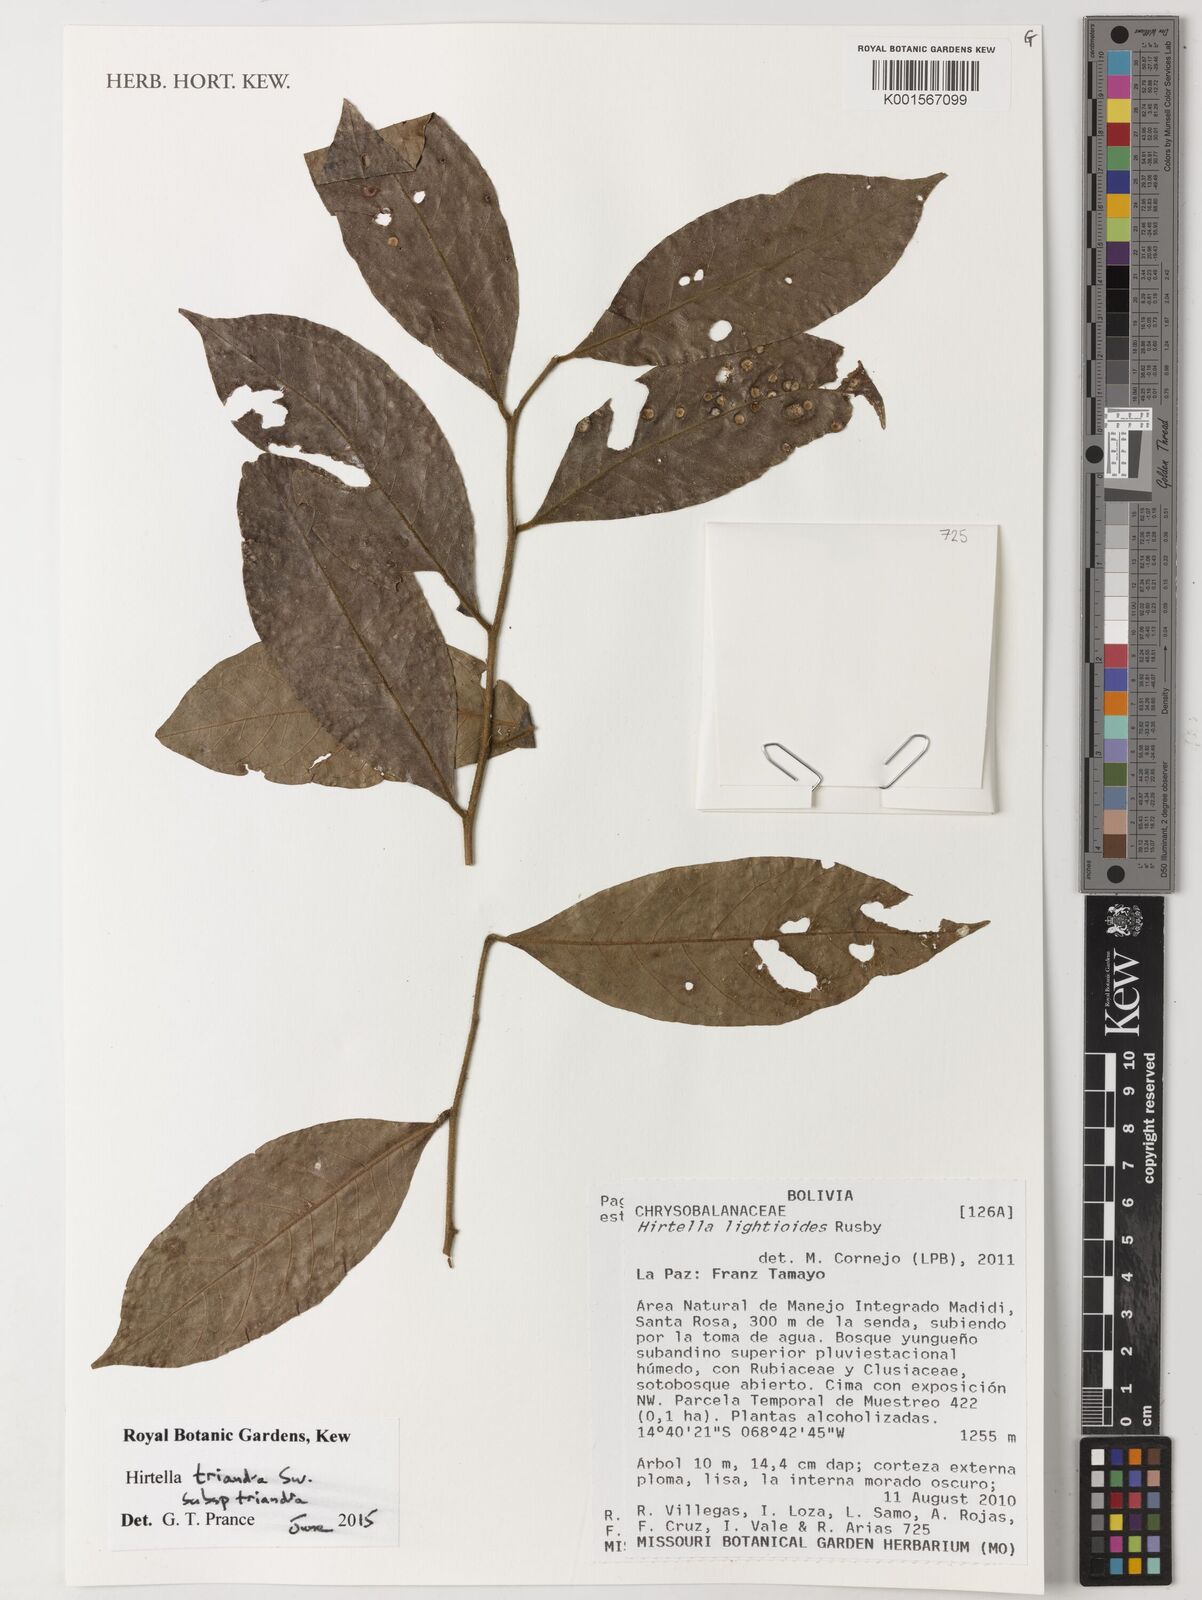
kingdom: Plantae
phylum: Tracheophyta
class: Magnoliopsida
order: Malpighiales
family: Chrysobalanaceae
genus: Hirtella
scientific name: Hirtella triandra
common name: Hairy plum
